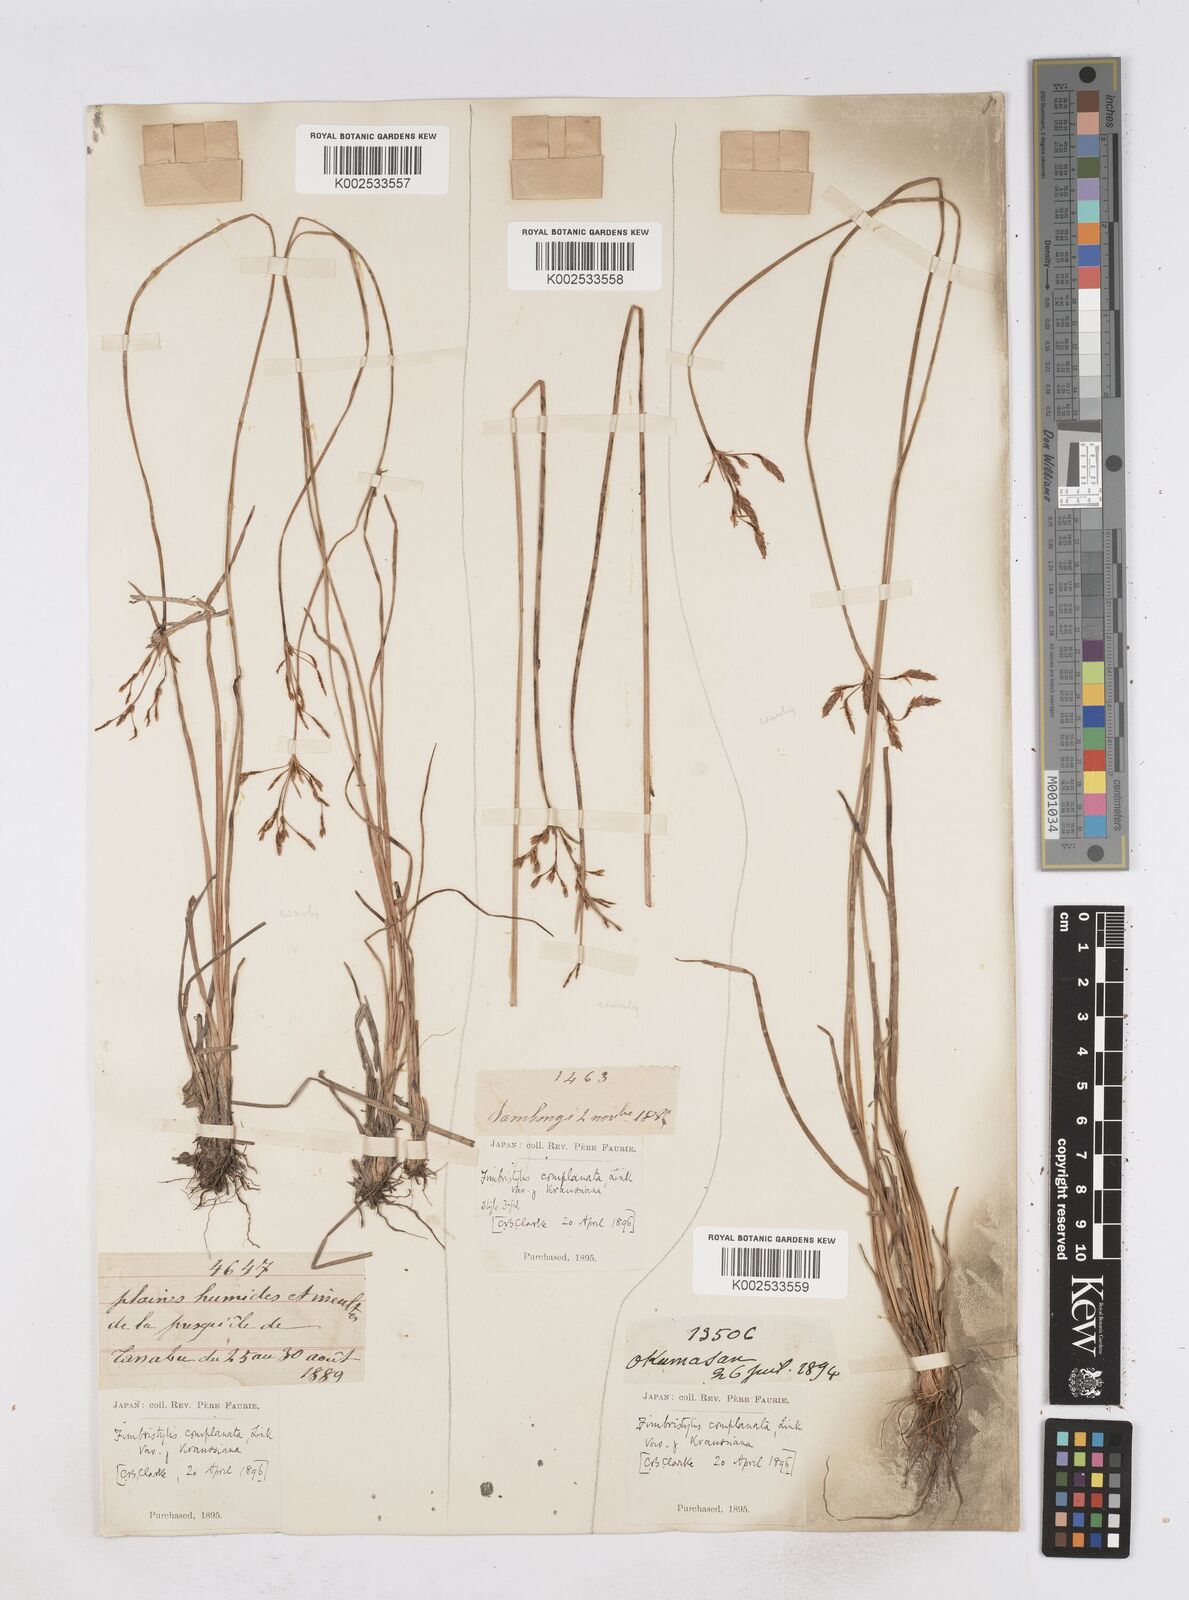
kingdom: Plantae
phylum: Tracheophyta
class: Liliopsida
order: Poales
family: Cyperaceae
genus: Fimbristylis
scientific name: Fimbristylis complanata
